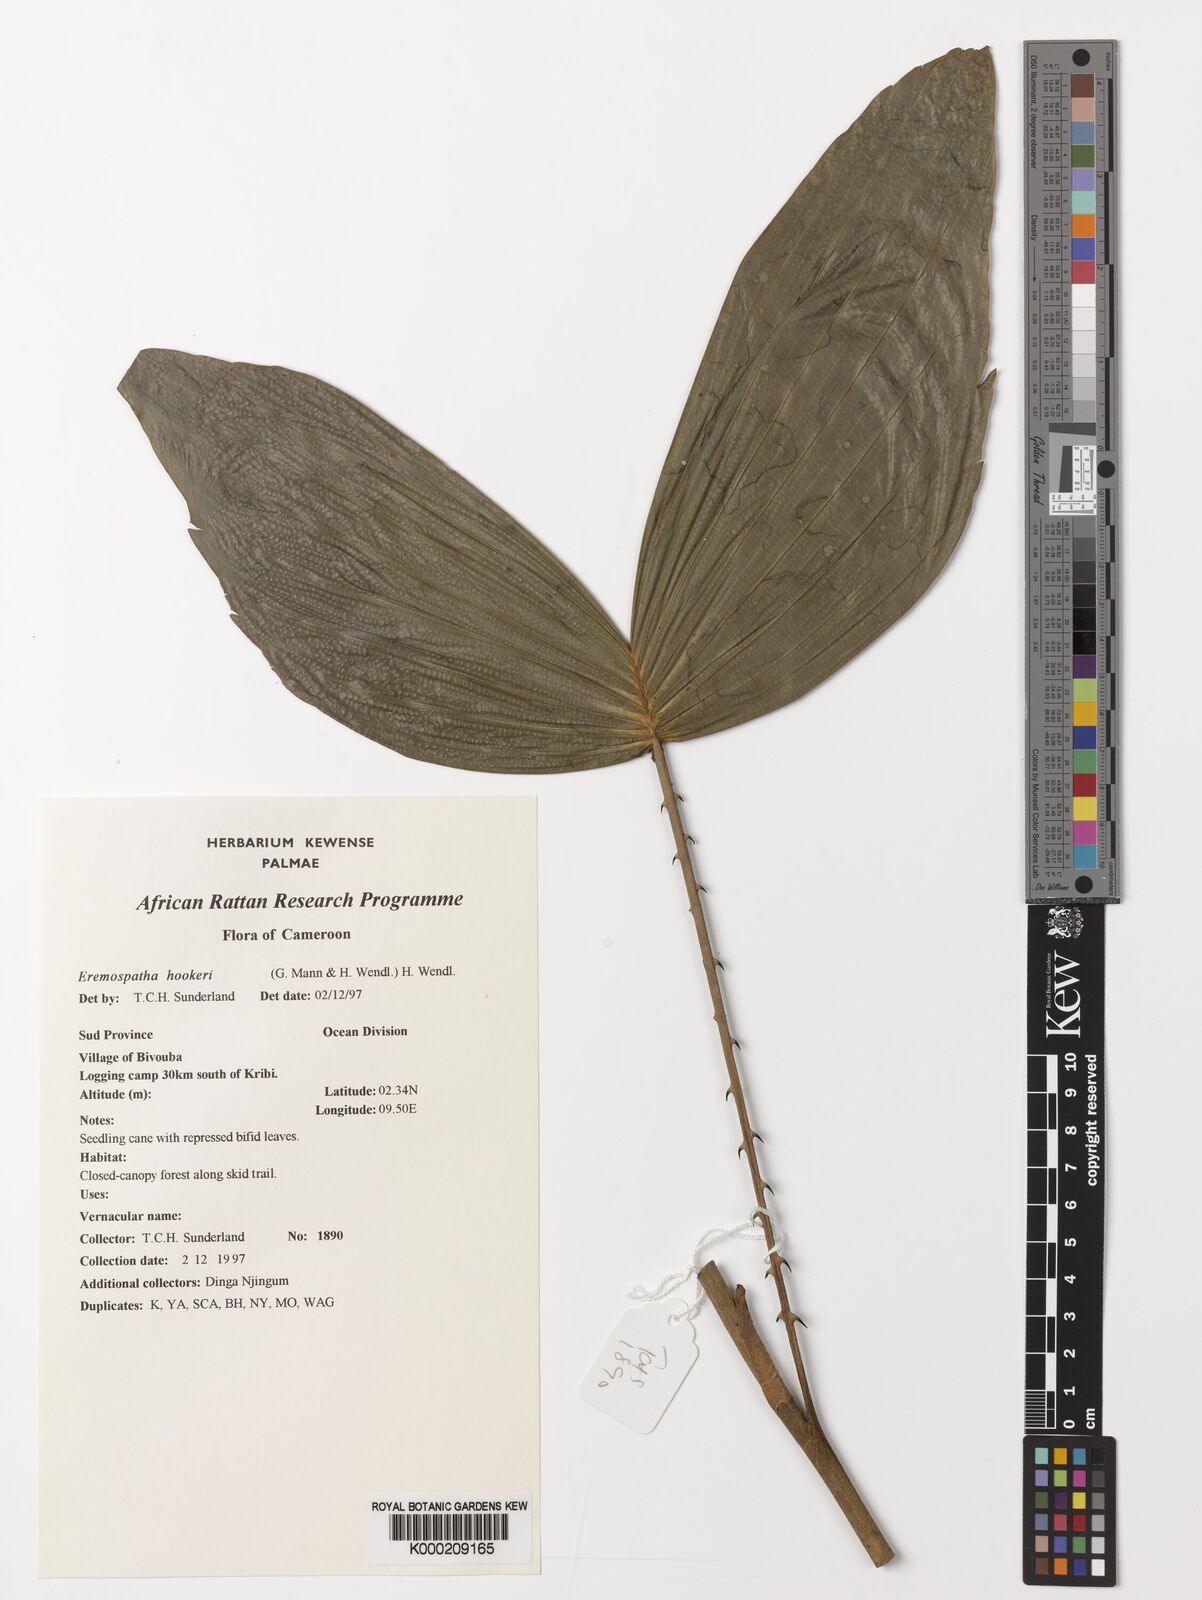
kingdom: Plantae
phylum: Tracheophyta
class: Liliopsida
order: Arecales
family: Arecaceae
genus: Eremospatha
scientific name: Eremospatha hookeri
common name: Rattan
